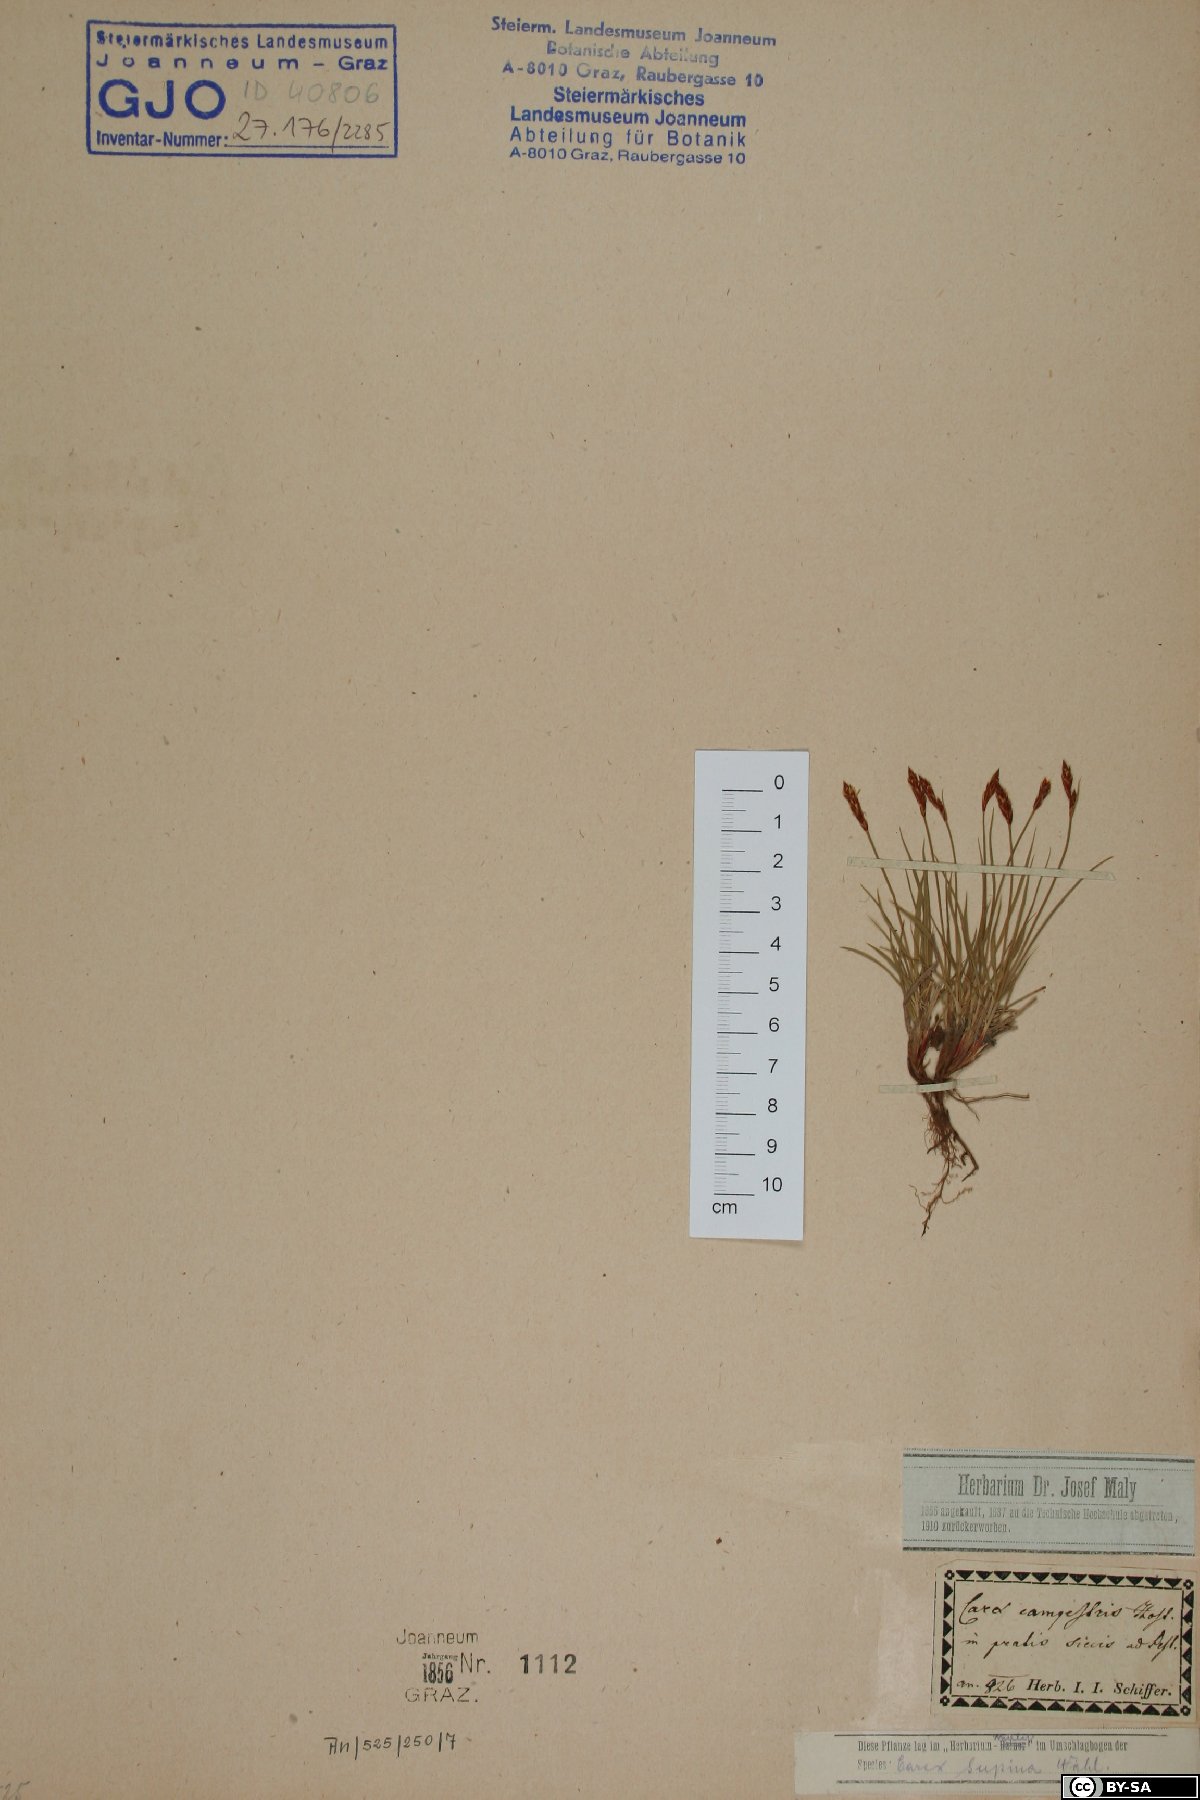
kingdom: Plantae
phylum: Tracheophyta
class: Liliopsida
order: Poales
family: Cyperaceae
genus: Carex
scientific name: Carex supina
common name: Lying-back sedge
